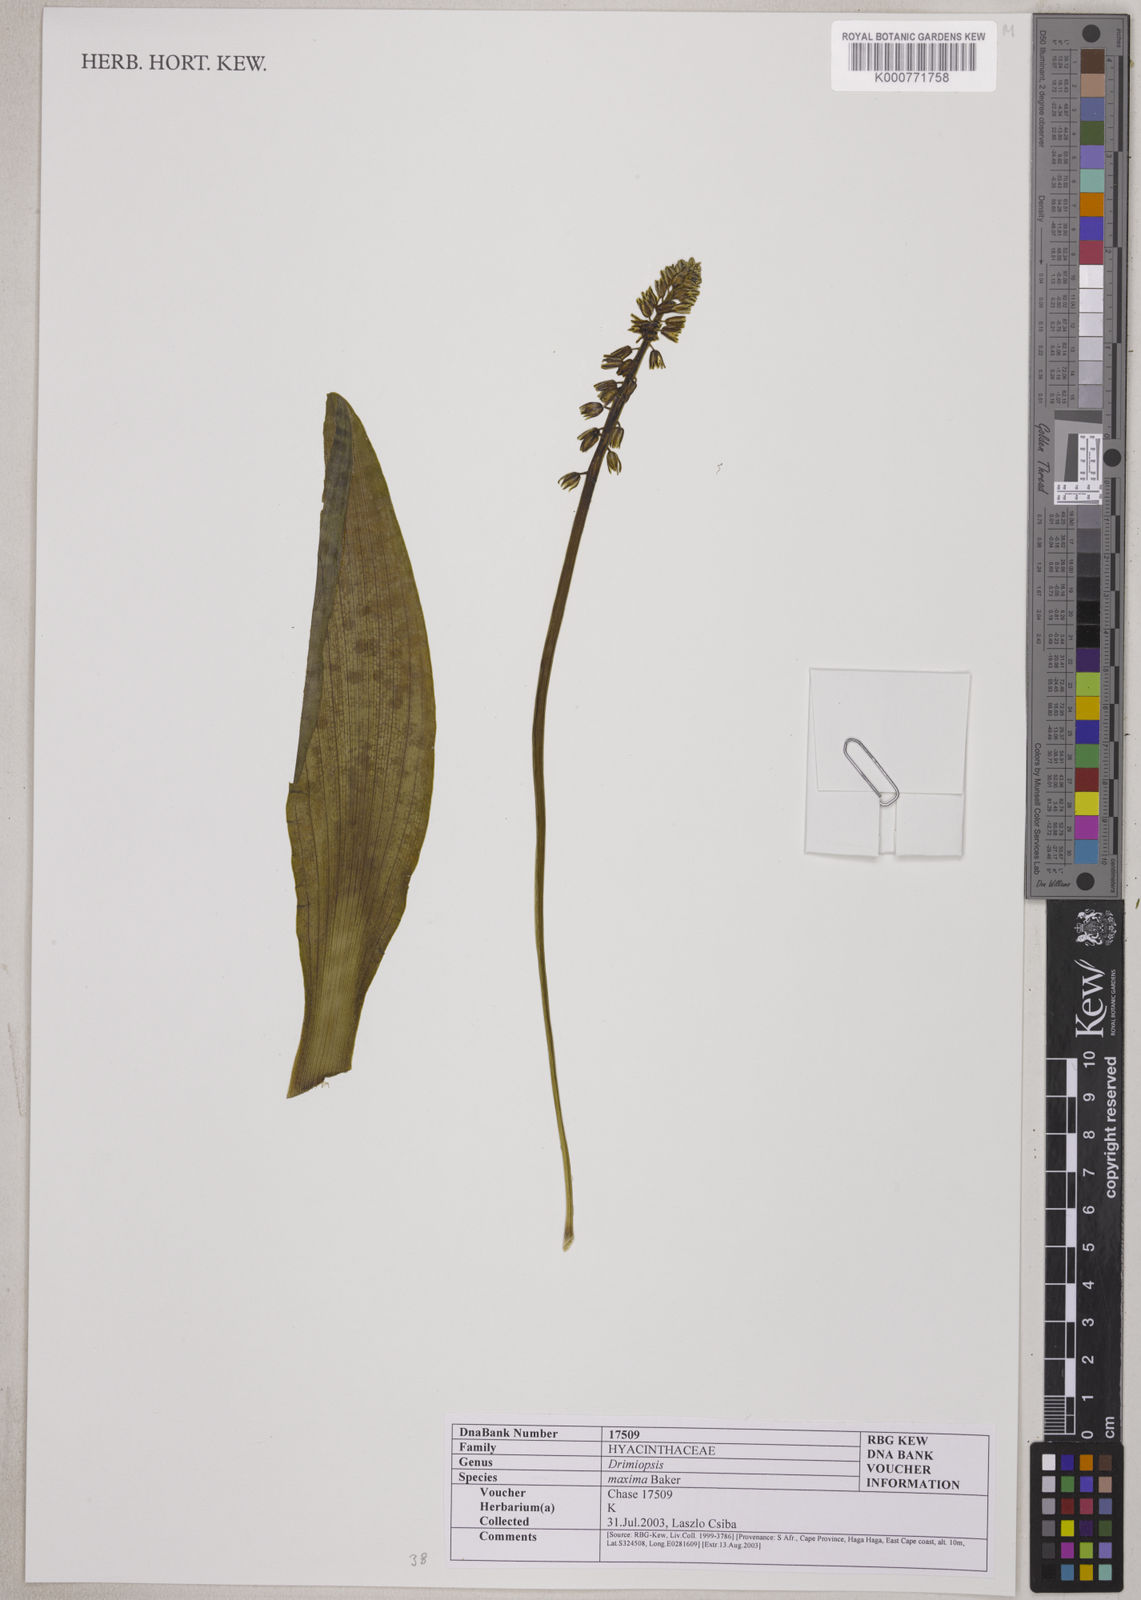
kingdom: Plantae
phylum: Tracheophyta
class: Liliopsida
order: Asparagales
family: Asparagaceae
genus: Resnova
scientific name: Resnova humifusa
